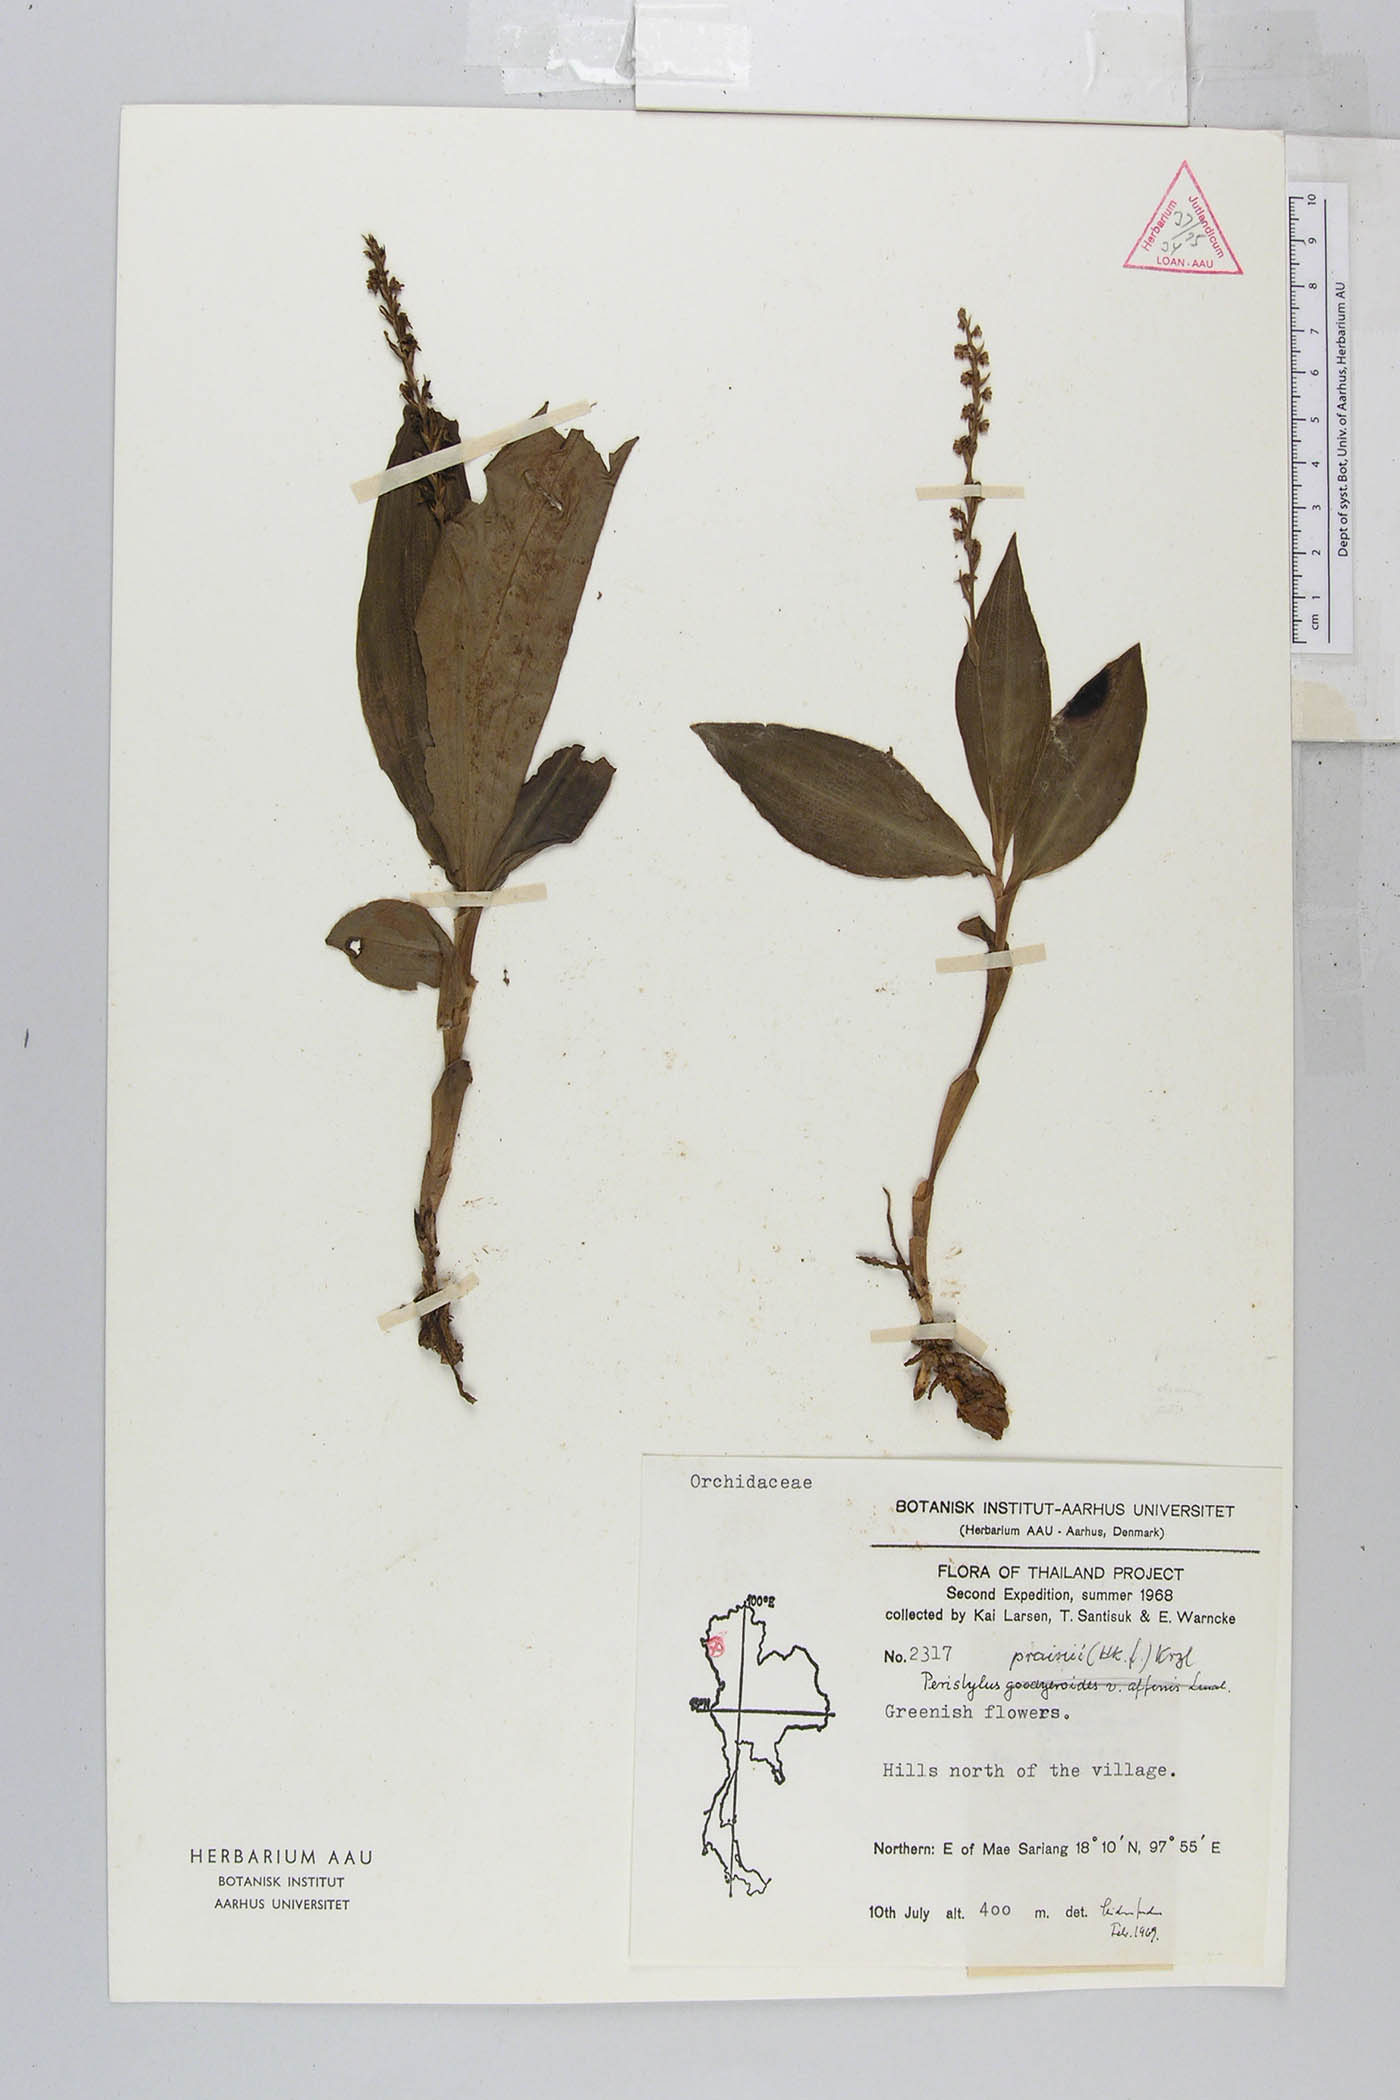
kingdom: Plantae
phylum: Tracheophyta
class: Liliopsida
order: Asparagales
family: Orchidaceae
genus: Peristylus
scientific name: Peristylus prainii
